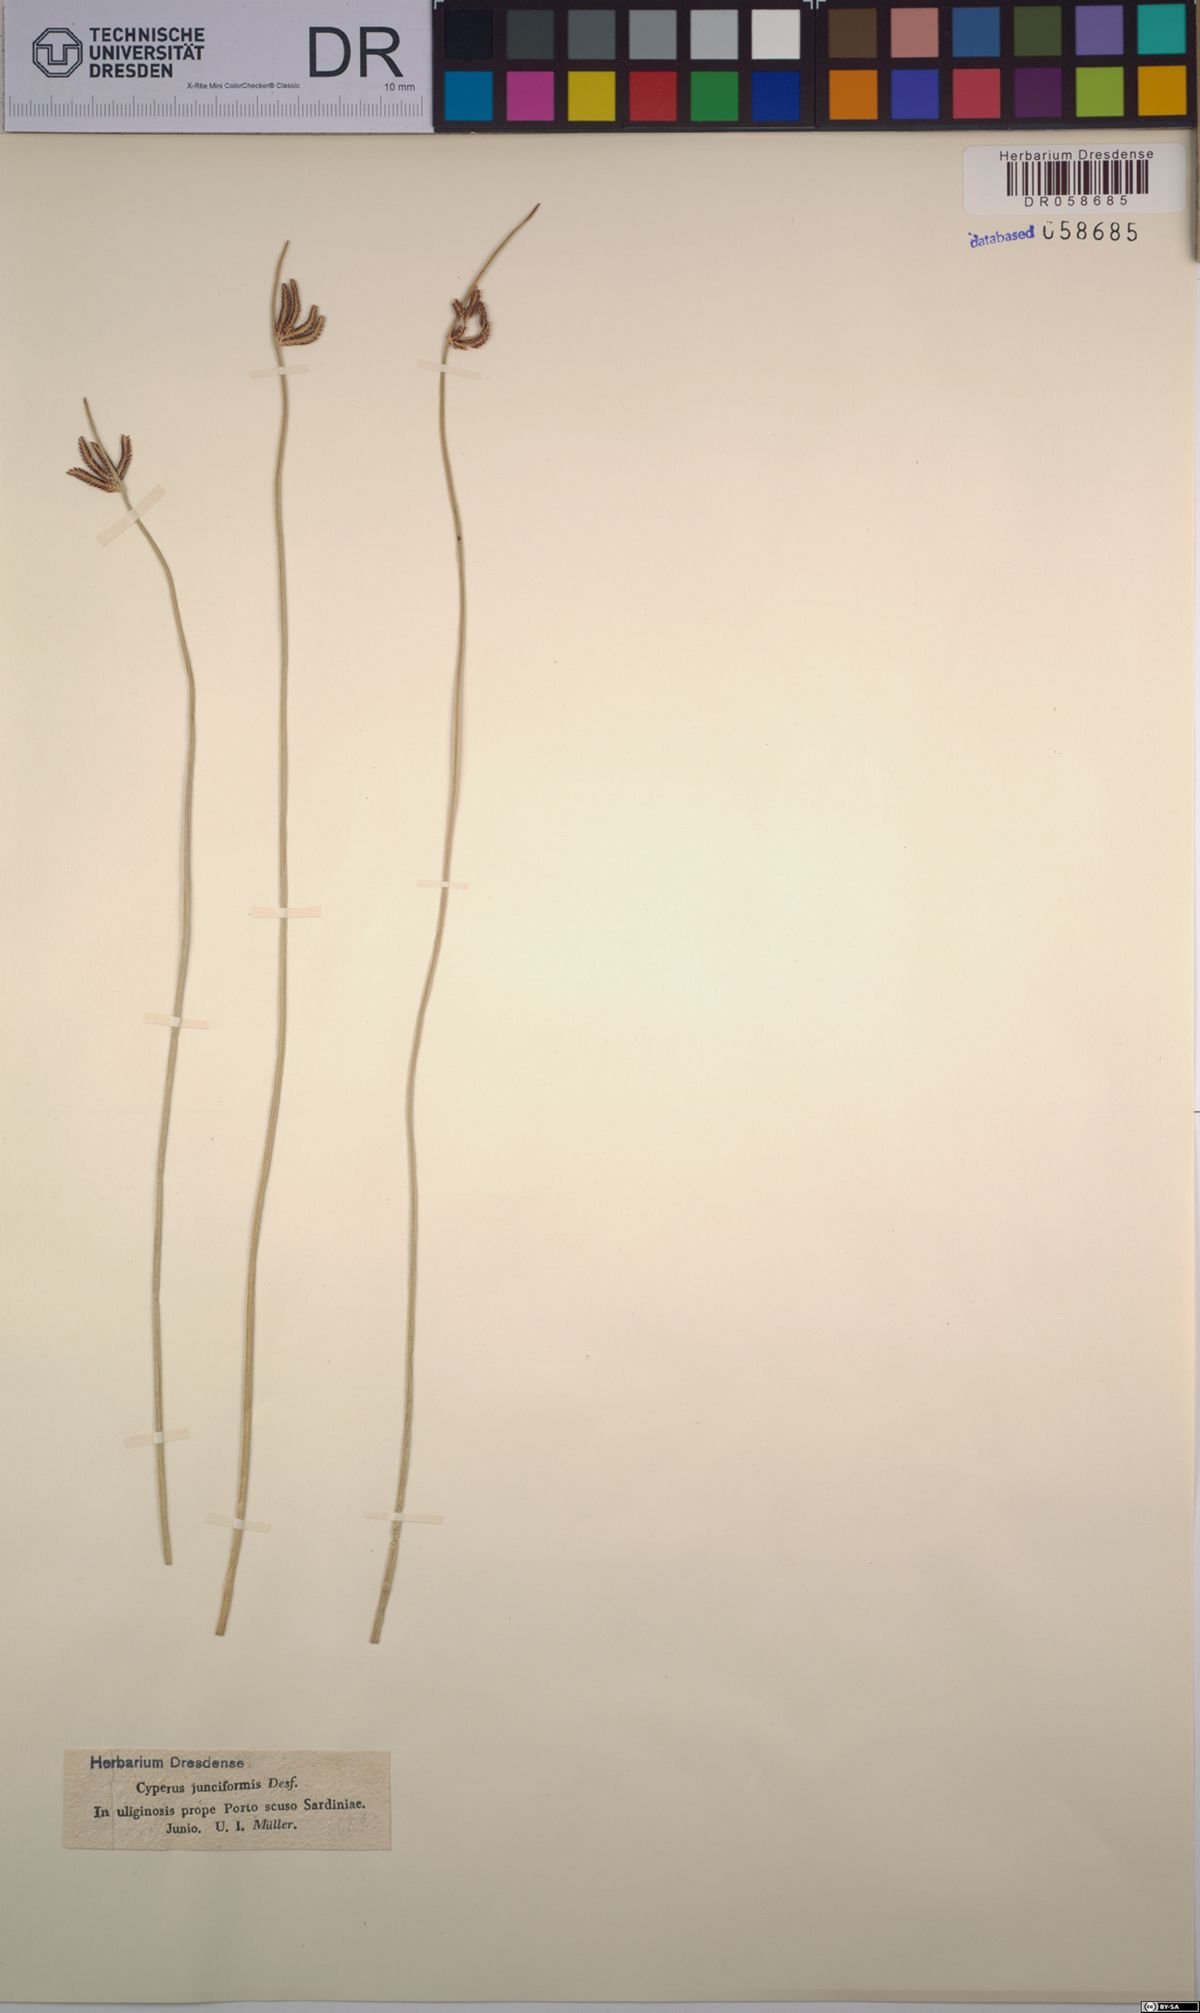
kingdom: Plantae
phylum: Tracheophyta
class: Liliopsida
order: Poales
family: Cyperaceae
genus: Cyperus
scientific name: Cyperus laevigatus
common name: Smooth flat sedge
